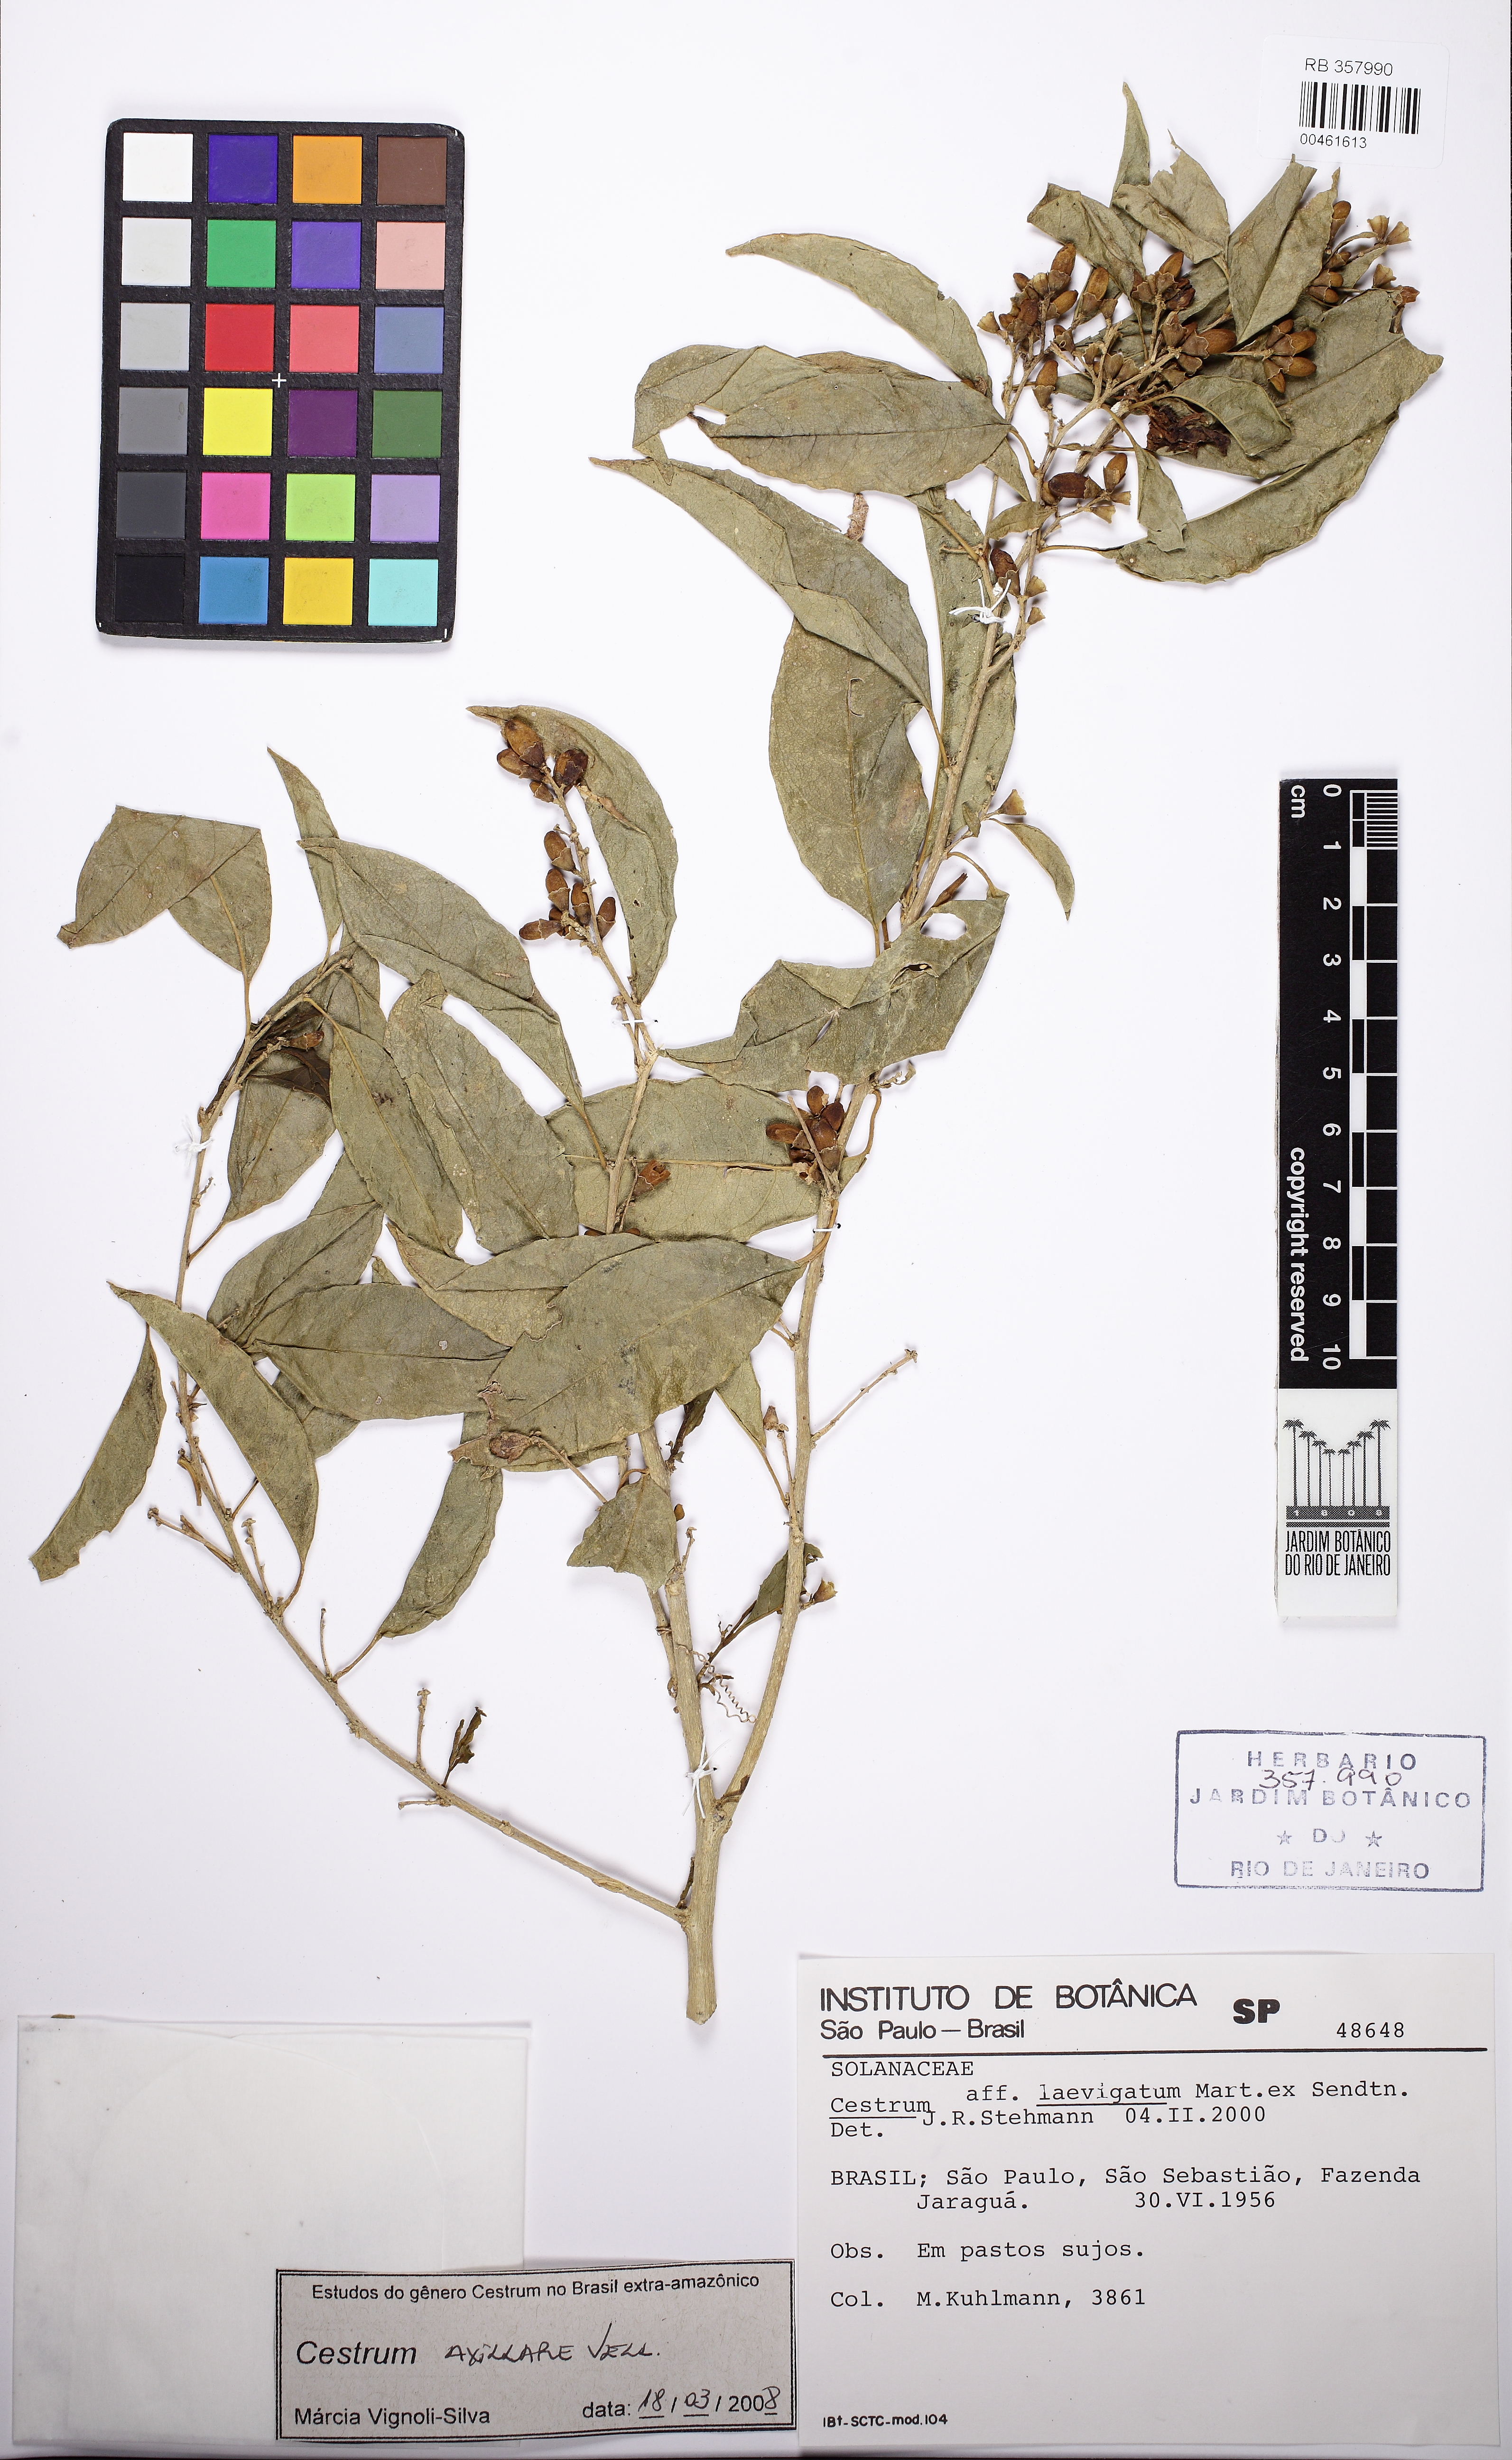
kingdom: Plantae
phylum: Tracheophyta
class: Magnoliopsida
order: Solanales
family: Solanaceae
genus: Cestrum
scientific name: Cestrum laevigatum
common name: Inkberry
